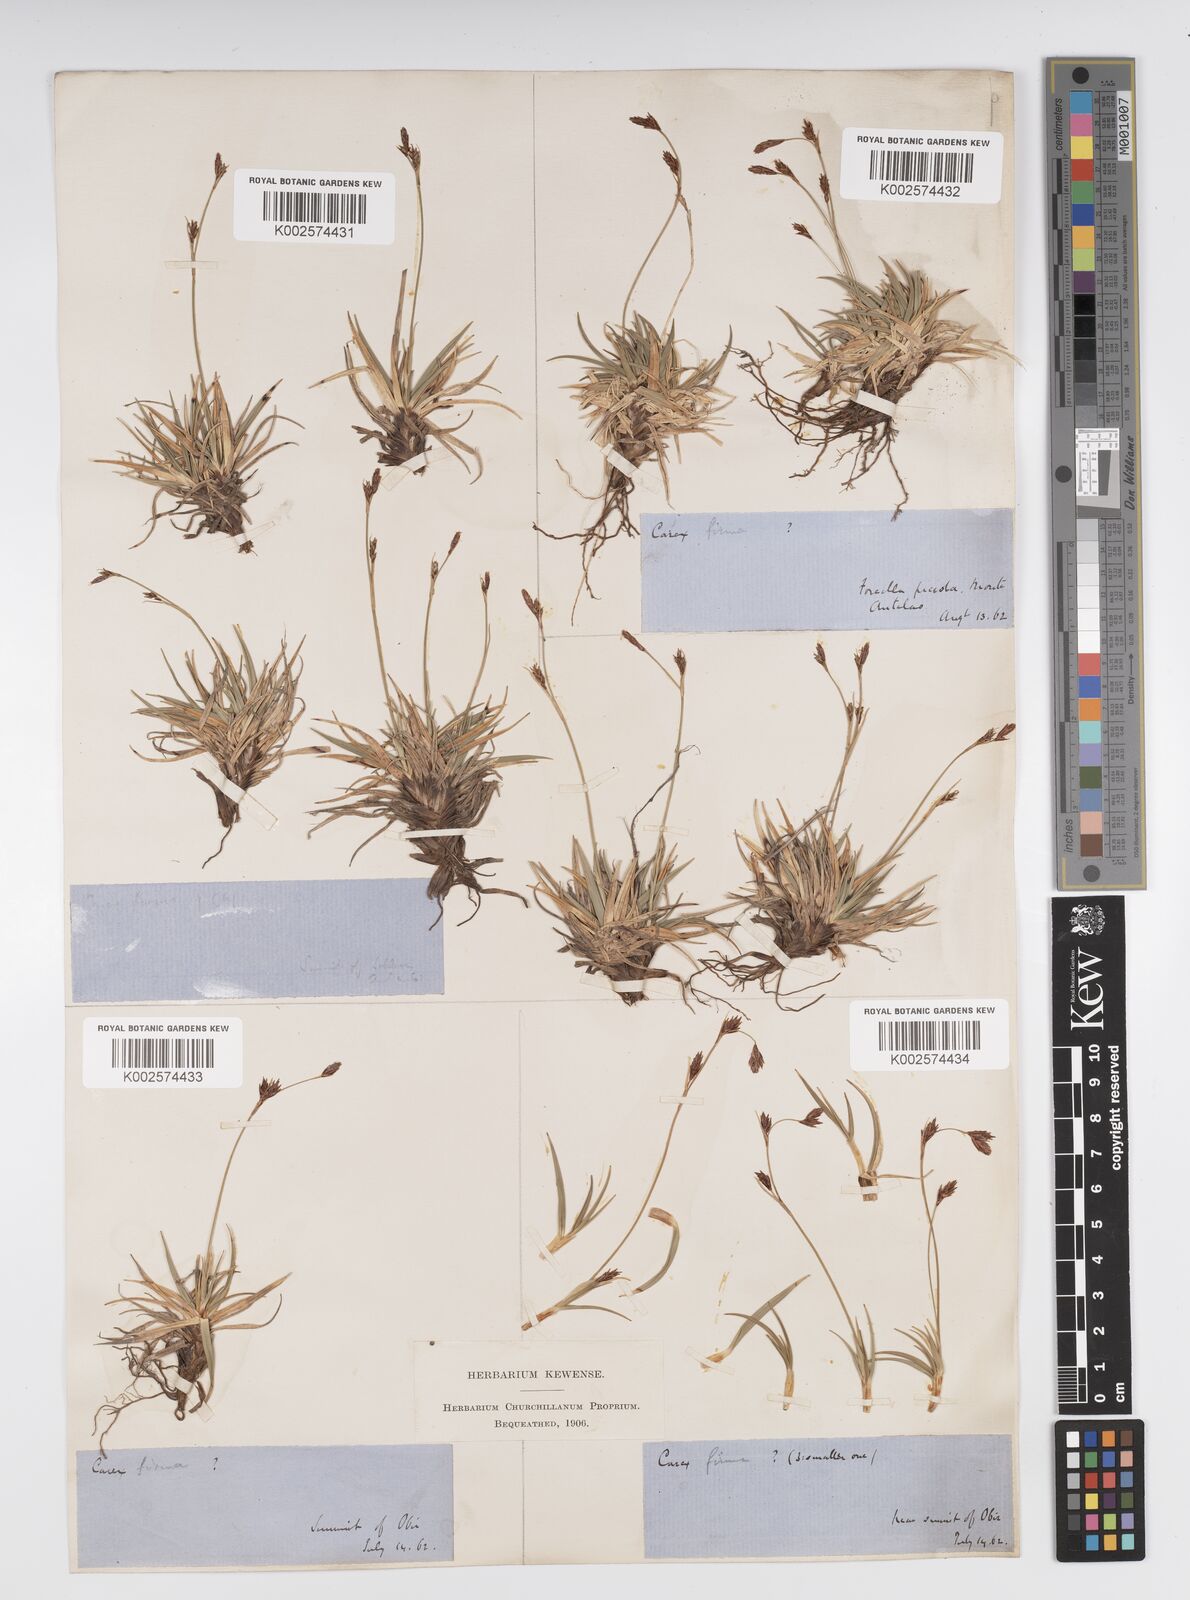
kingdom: Plantae
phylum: Tracheophyta
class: Liliopsida
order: Poales
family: Cyperaceae
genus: Carex
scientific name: Carex firma
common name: Dwarf pillow sedge
